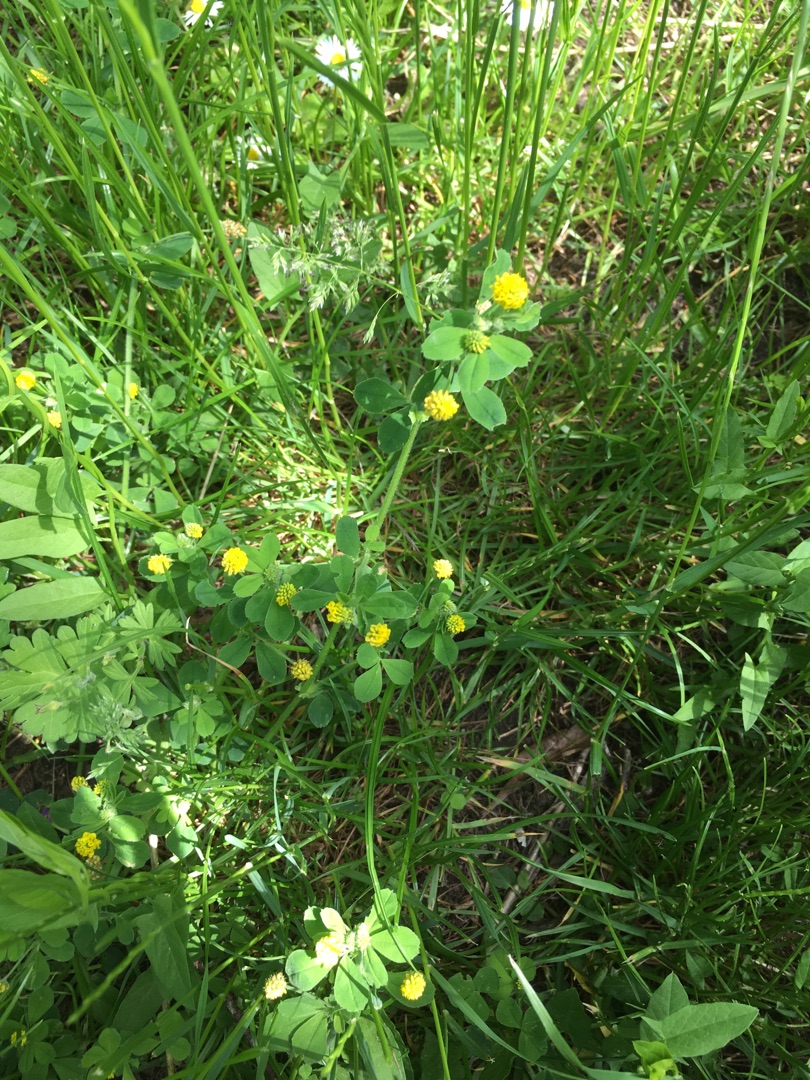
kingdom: Plantae
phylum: Tracheophyta
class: Magnoliopsida
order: Fabales
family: Fabaceae
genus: Medicago
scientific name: Medicago lupulina
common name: Humle-sneglebælg
